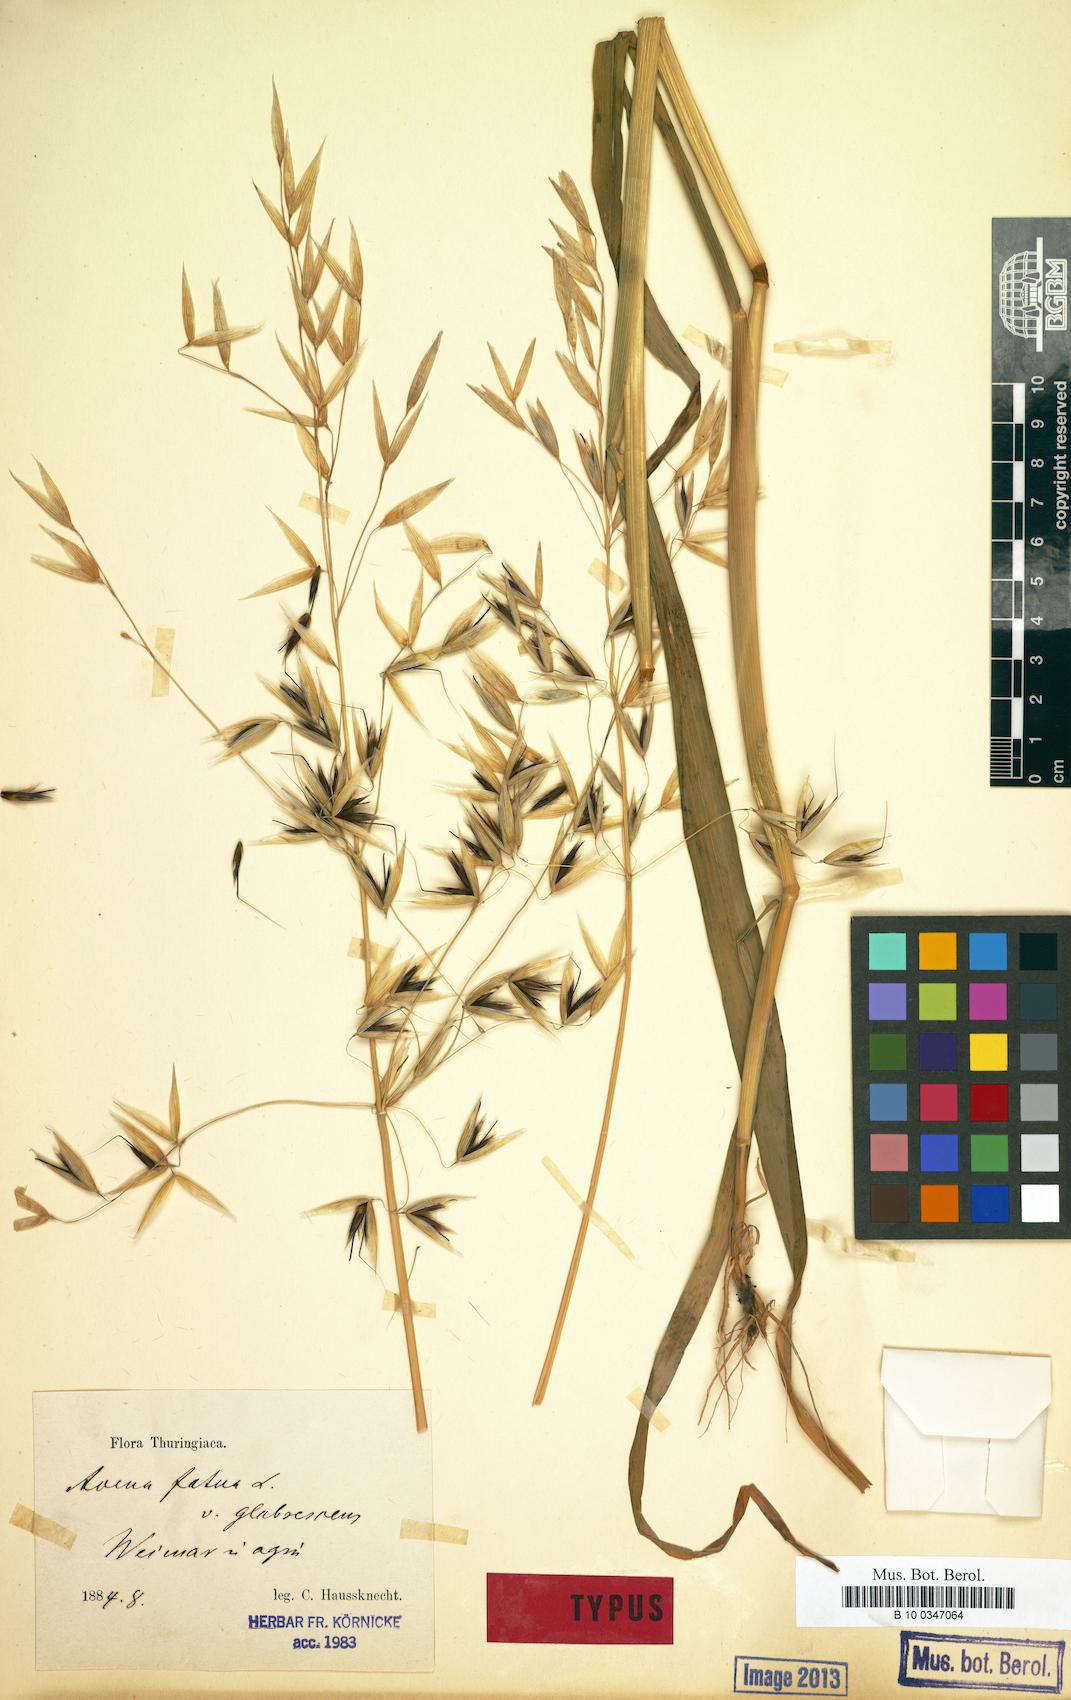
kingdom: Plantae
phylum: Tracheophyta
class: Liliopsida
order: Poales
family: Poaceae
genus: Avena
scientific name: Avena fatua
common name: Wild oat
